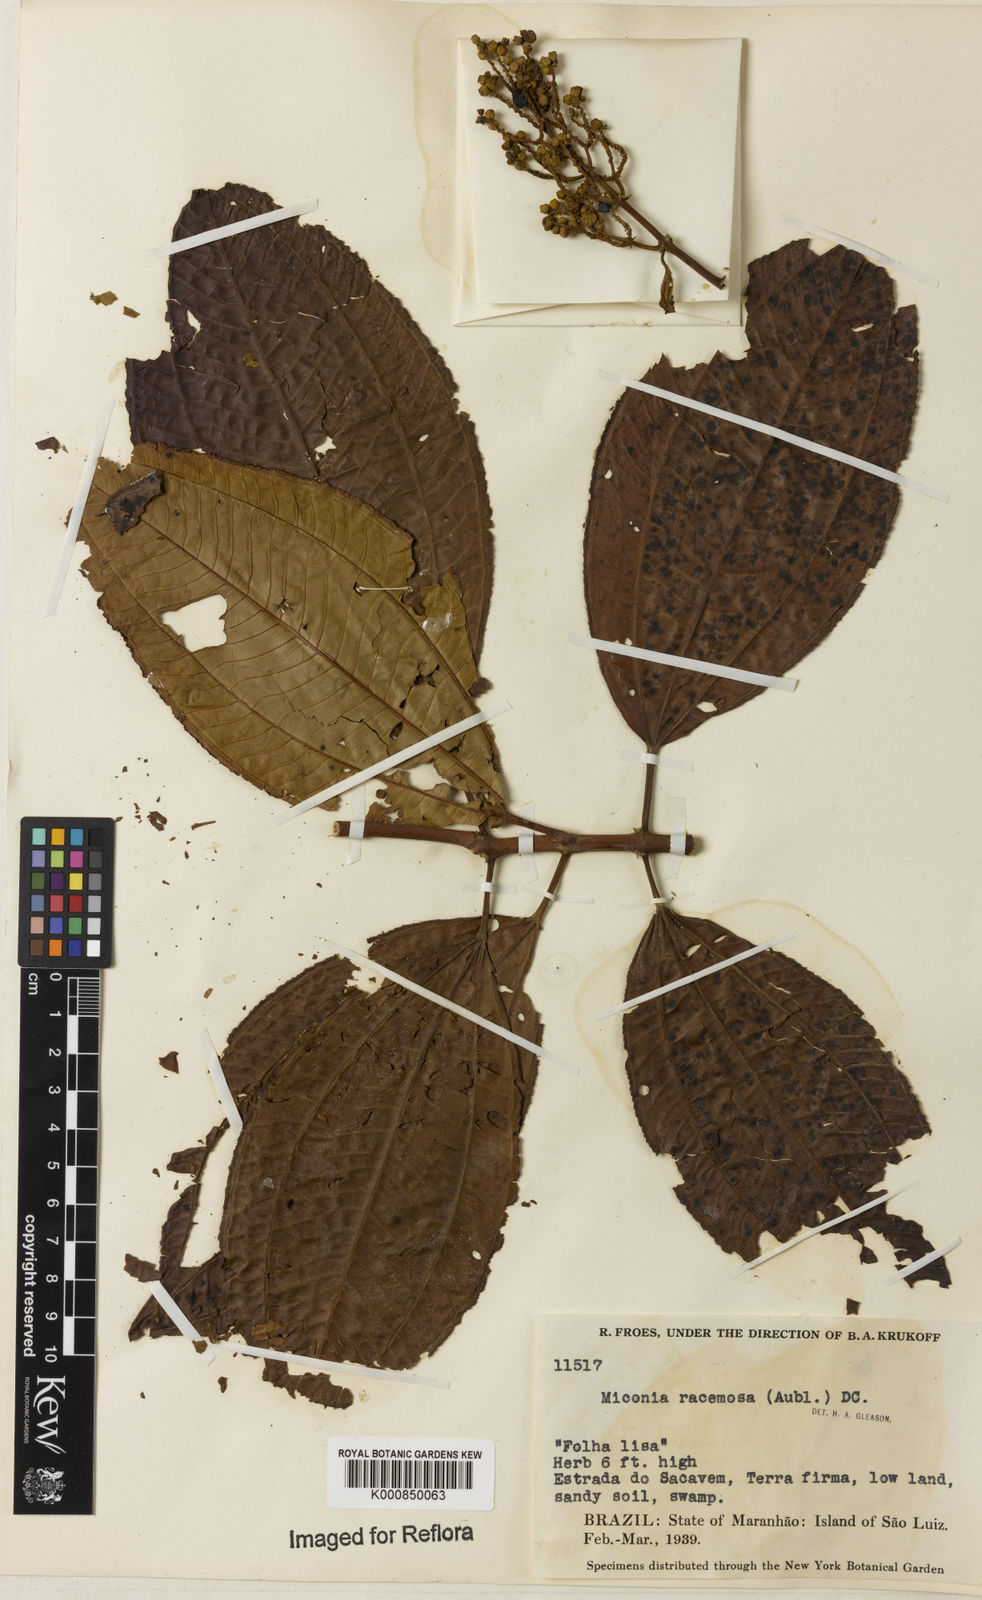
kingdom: Plantae
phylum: Tracheophyta
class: Magnoliopsida
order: Myrtales
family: Melastomataceae
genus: Miconia
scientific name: Miconia racemosa
